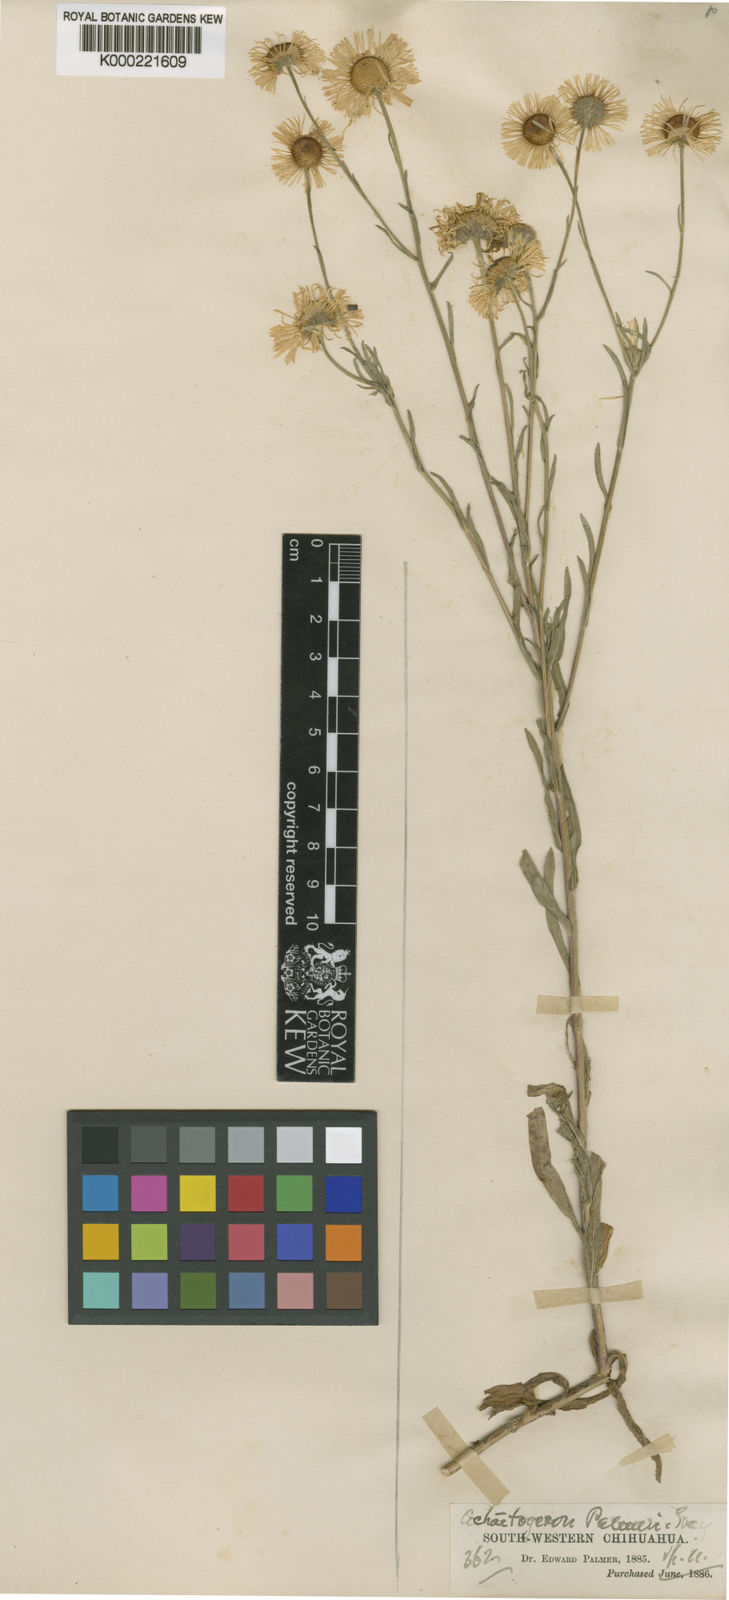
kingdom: Plantae
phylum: Tracheophyta
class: Magnoliopsida
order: Asterales
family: Asteraceae
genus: Erigeron
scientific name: Erigeron strigulosus
